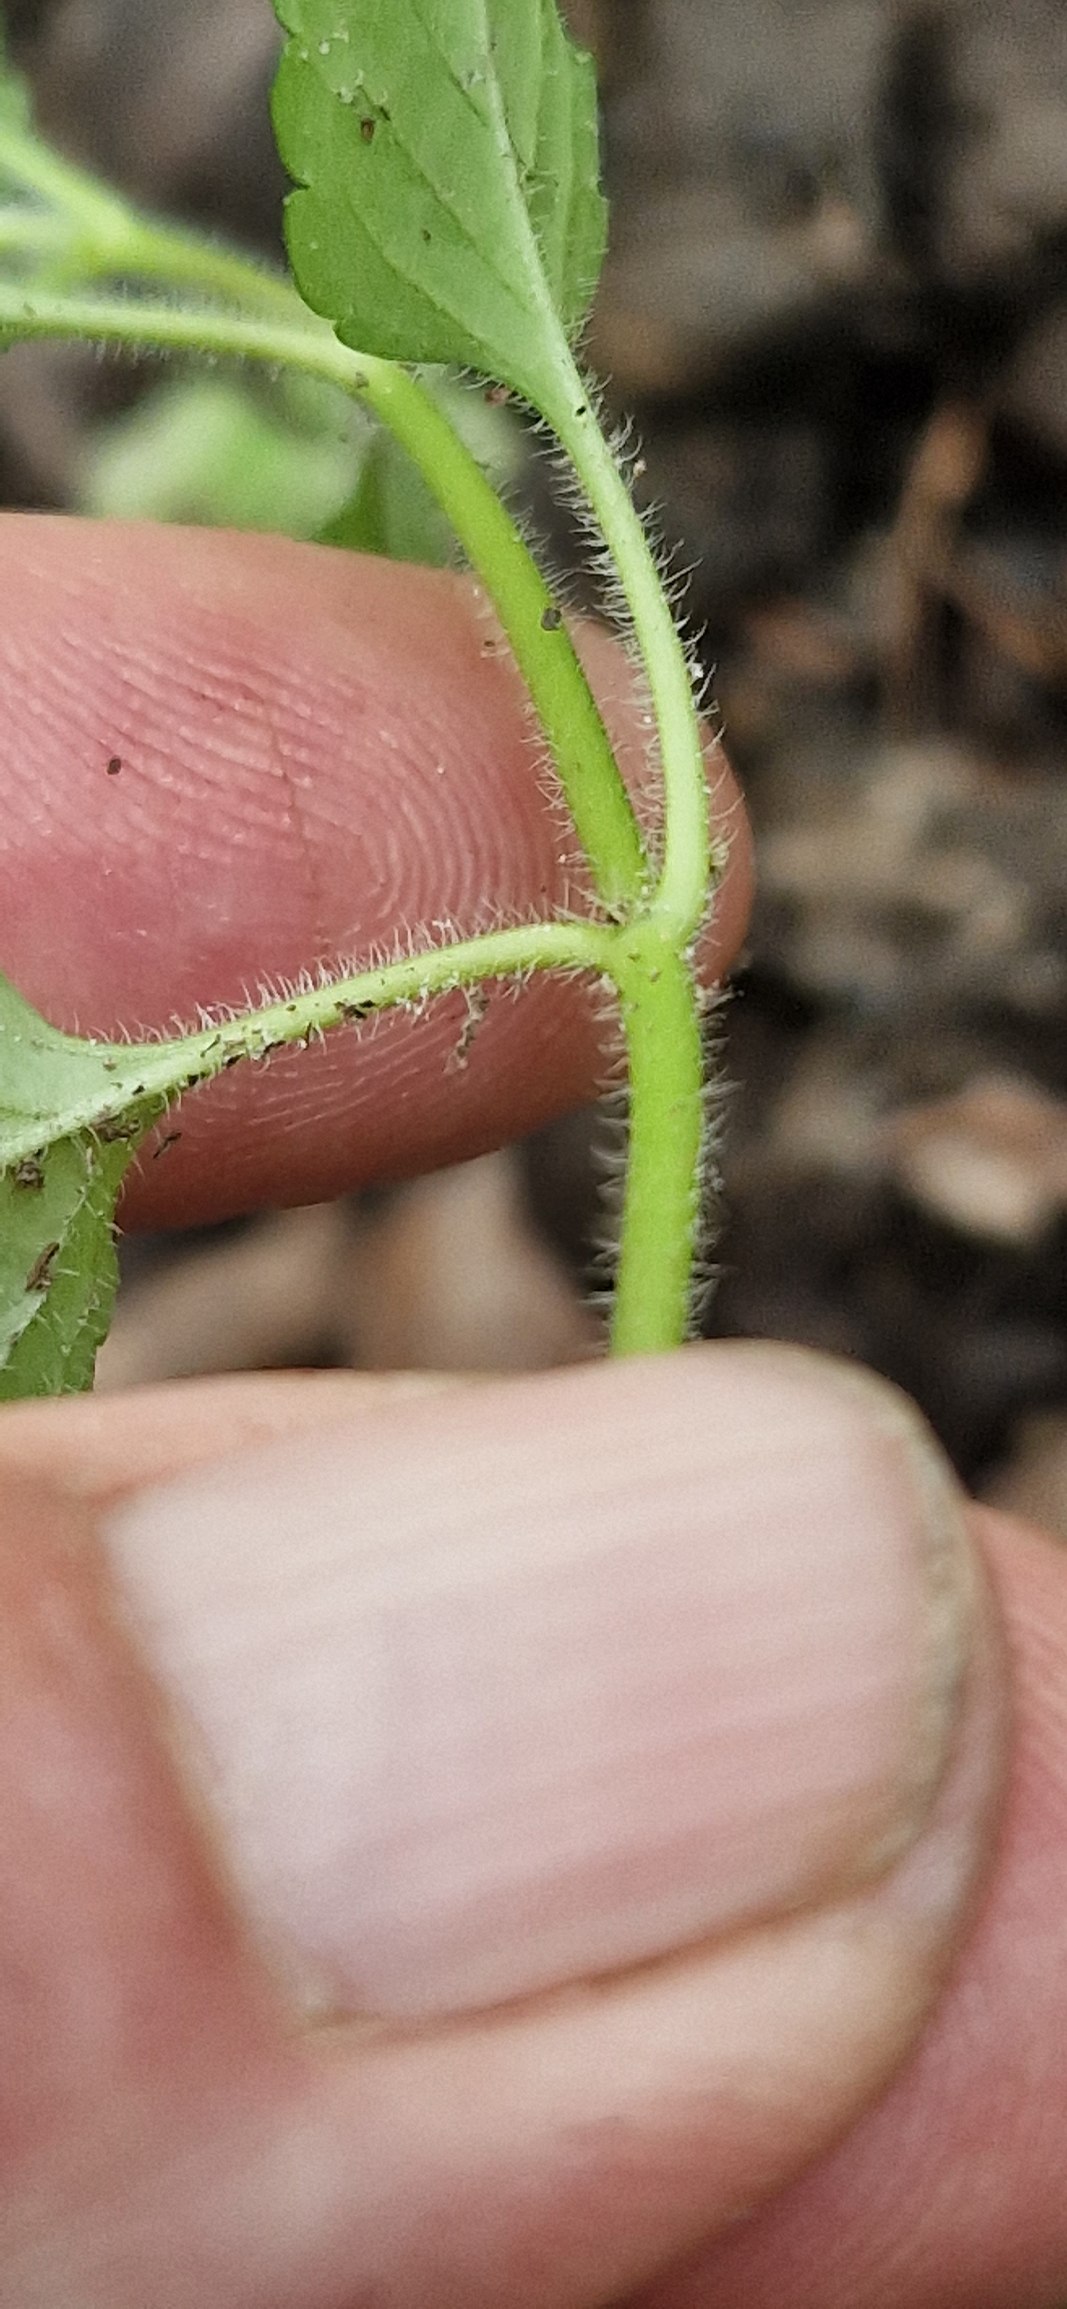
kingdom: Plantae
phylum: Tracheophyta
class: Magnoliopsida
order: Lamiales
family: Plantaginaceae
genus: Veronica
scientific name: Veronica montana
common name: Bjerg-ærenpris
